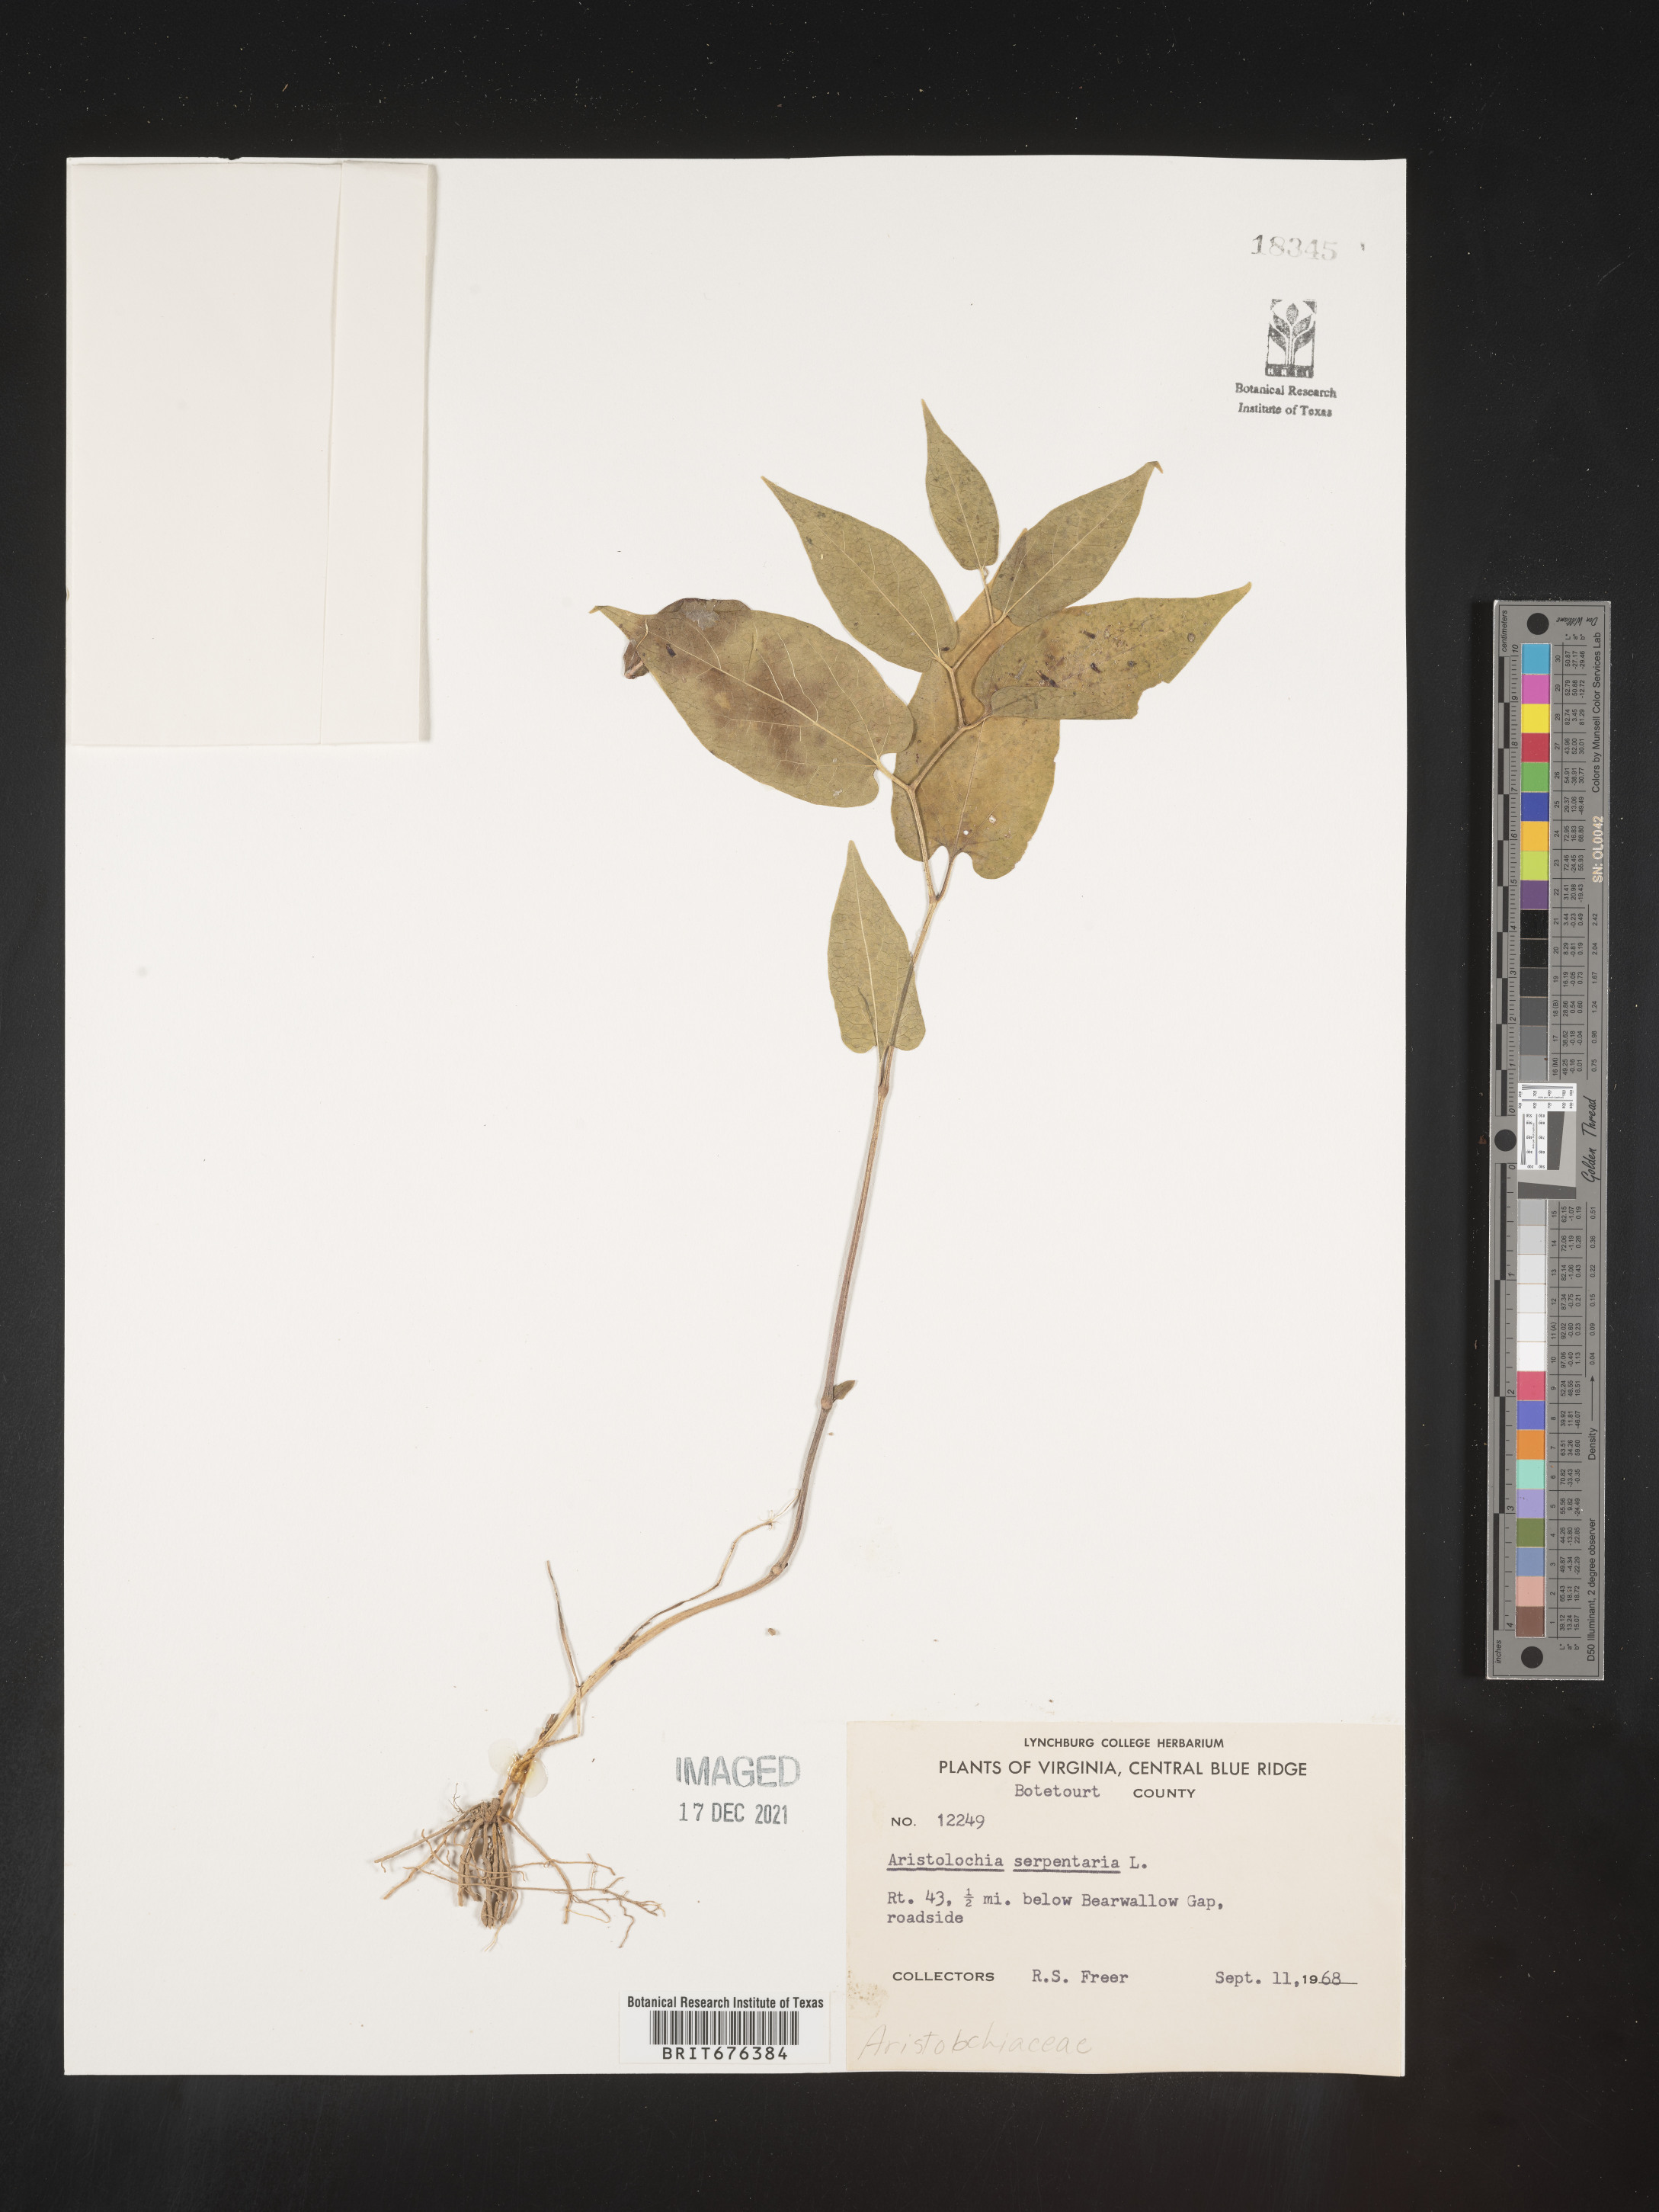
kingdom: Plantae
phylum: Tracheophyta
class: Magnoliopsida
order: Piperales
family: Aristolochiaceae
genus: Aristolochia
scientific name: Aristolochia
